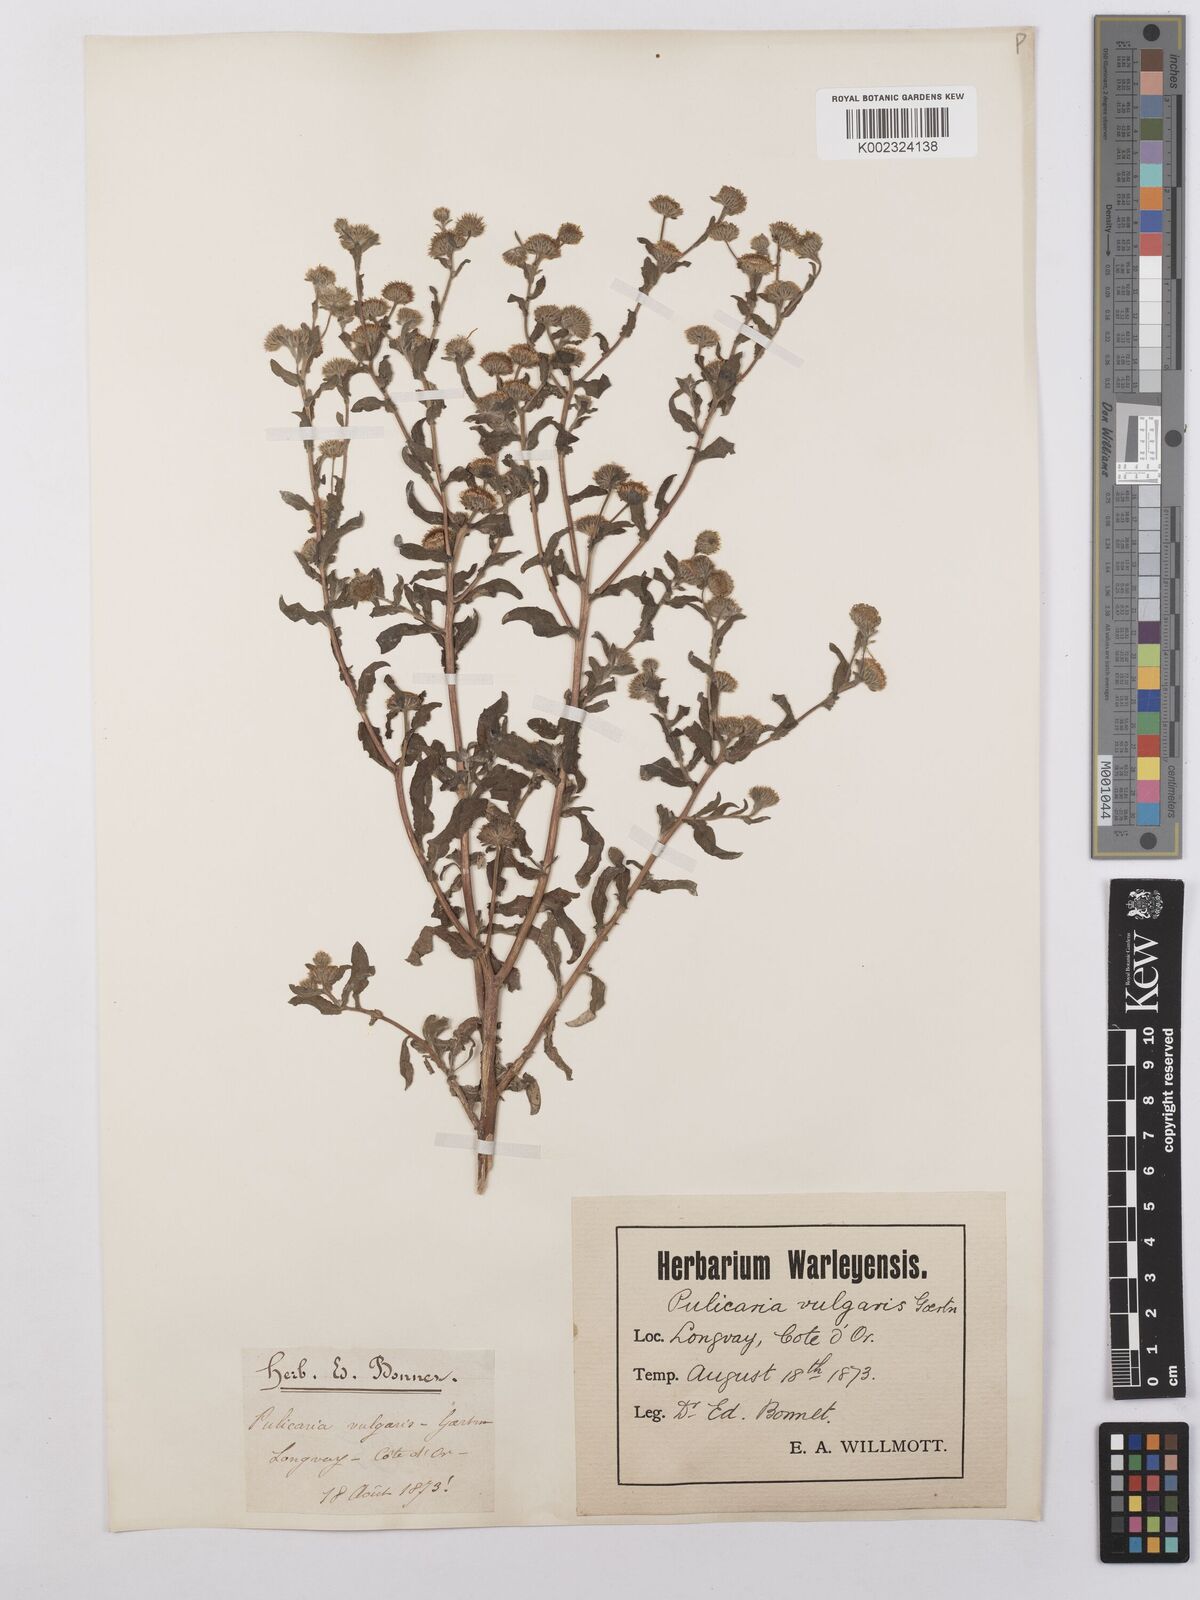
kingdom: Plantae
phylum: Tracheophyta
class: Magnoliopsida
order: Asterales
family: Asteraceae
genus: Pulicaria
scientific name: Pulicaria vulgaris
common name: Small fleabane
